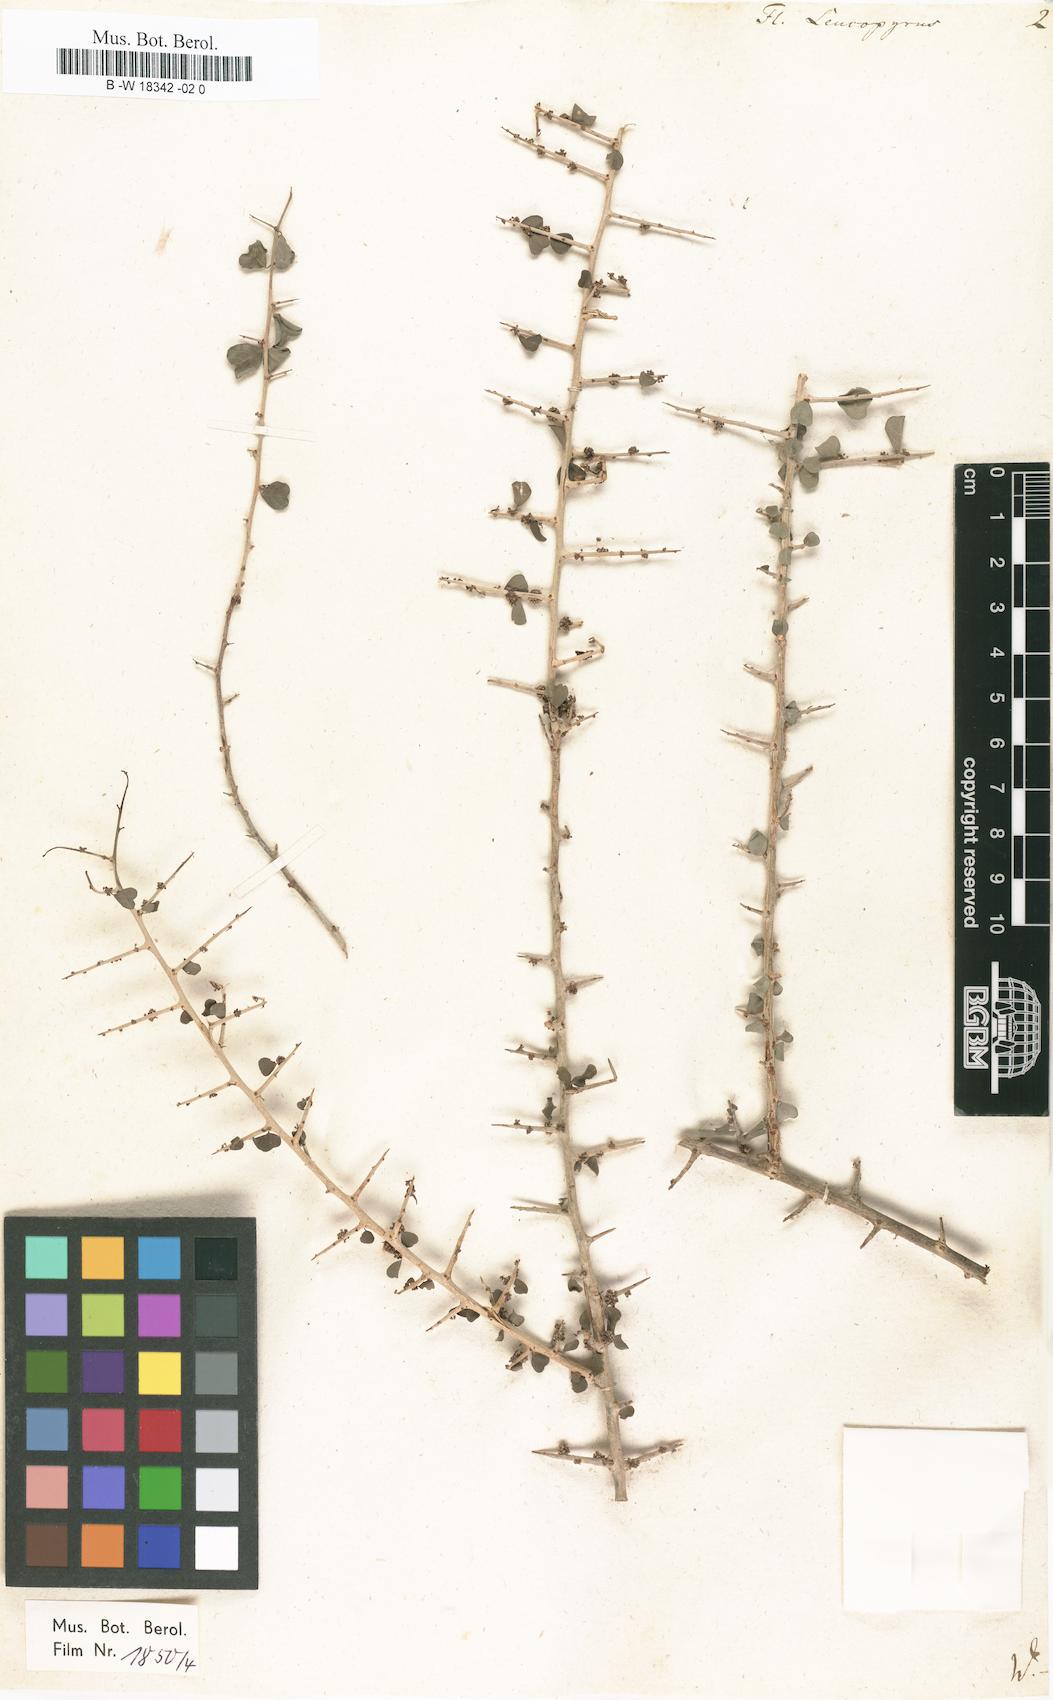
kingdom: Plantae
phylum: Tracheophyta
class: Magnoliopsida
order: Malpighiales
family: Phyllanthaceae
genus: Flueggea
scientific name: Flueggea leucopyrus
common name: Bushweed
